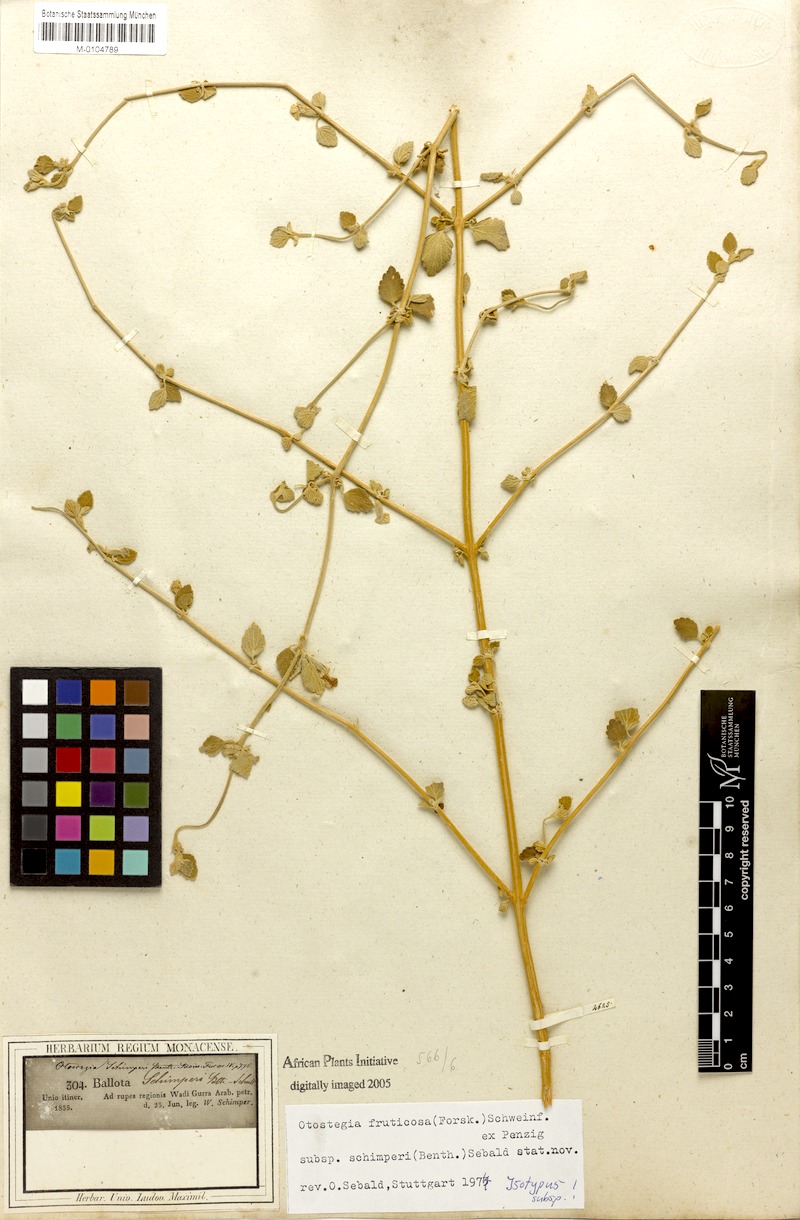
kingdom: Plantae
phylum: Tracheophyta
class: Magnoliopsida
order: Lamiales
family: Lamiaceae
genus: Otostegia
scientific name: Otostegia fruticosa
